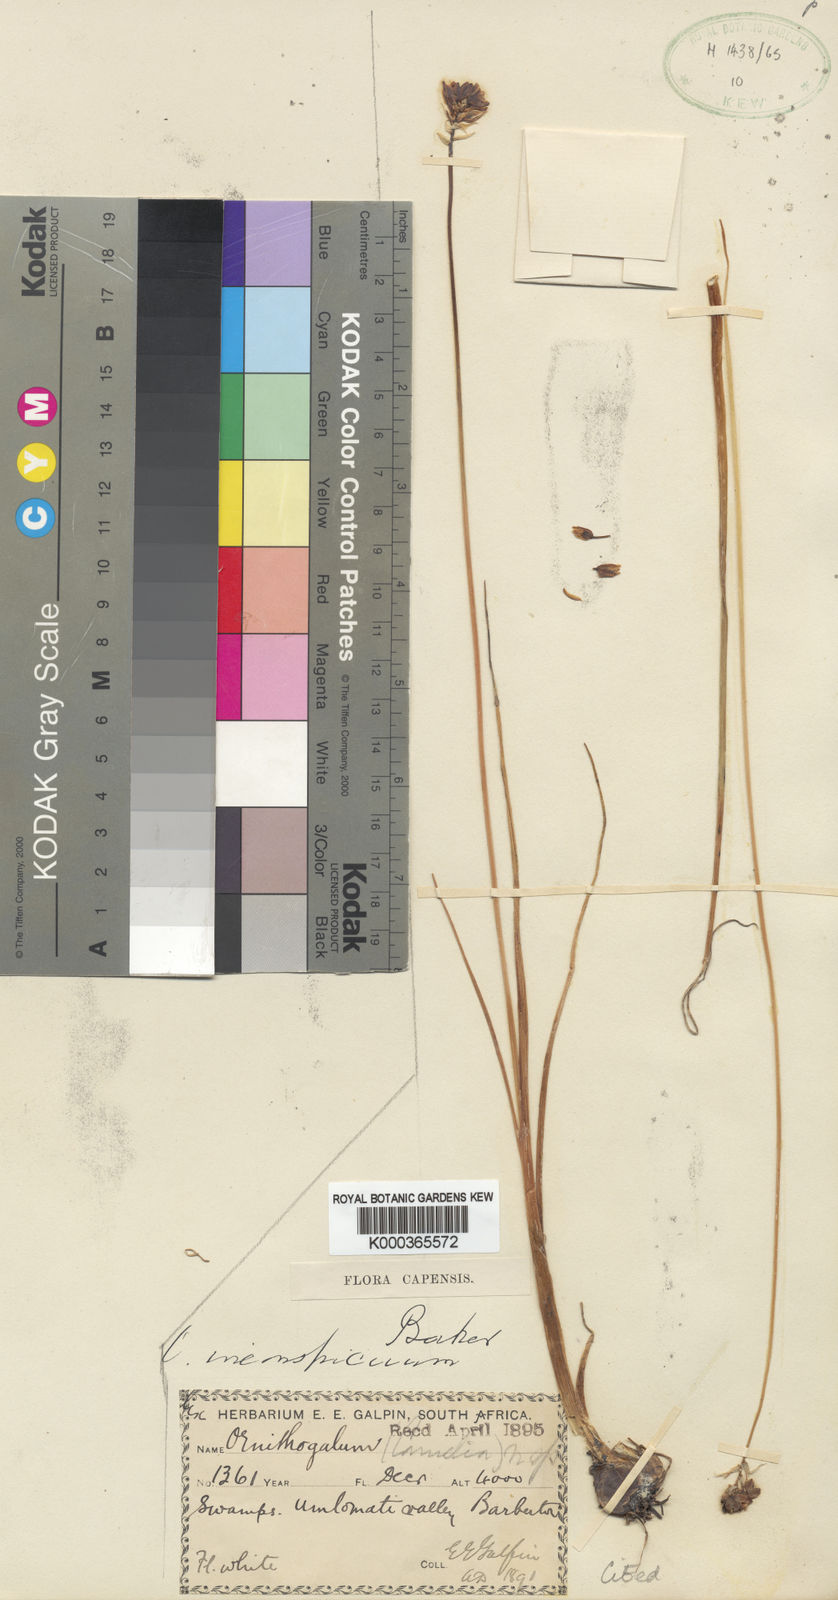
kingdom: Plantae
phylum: Tracheophyta
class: Liliopsida
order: Asparagales
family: Asparagaceae
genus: Ornithogalum
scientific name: Ornithogalum
